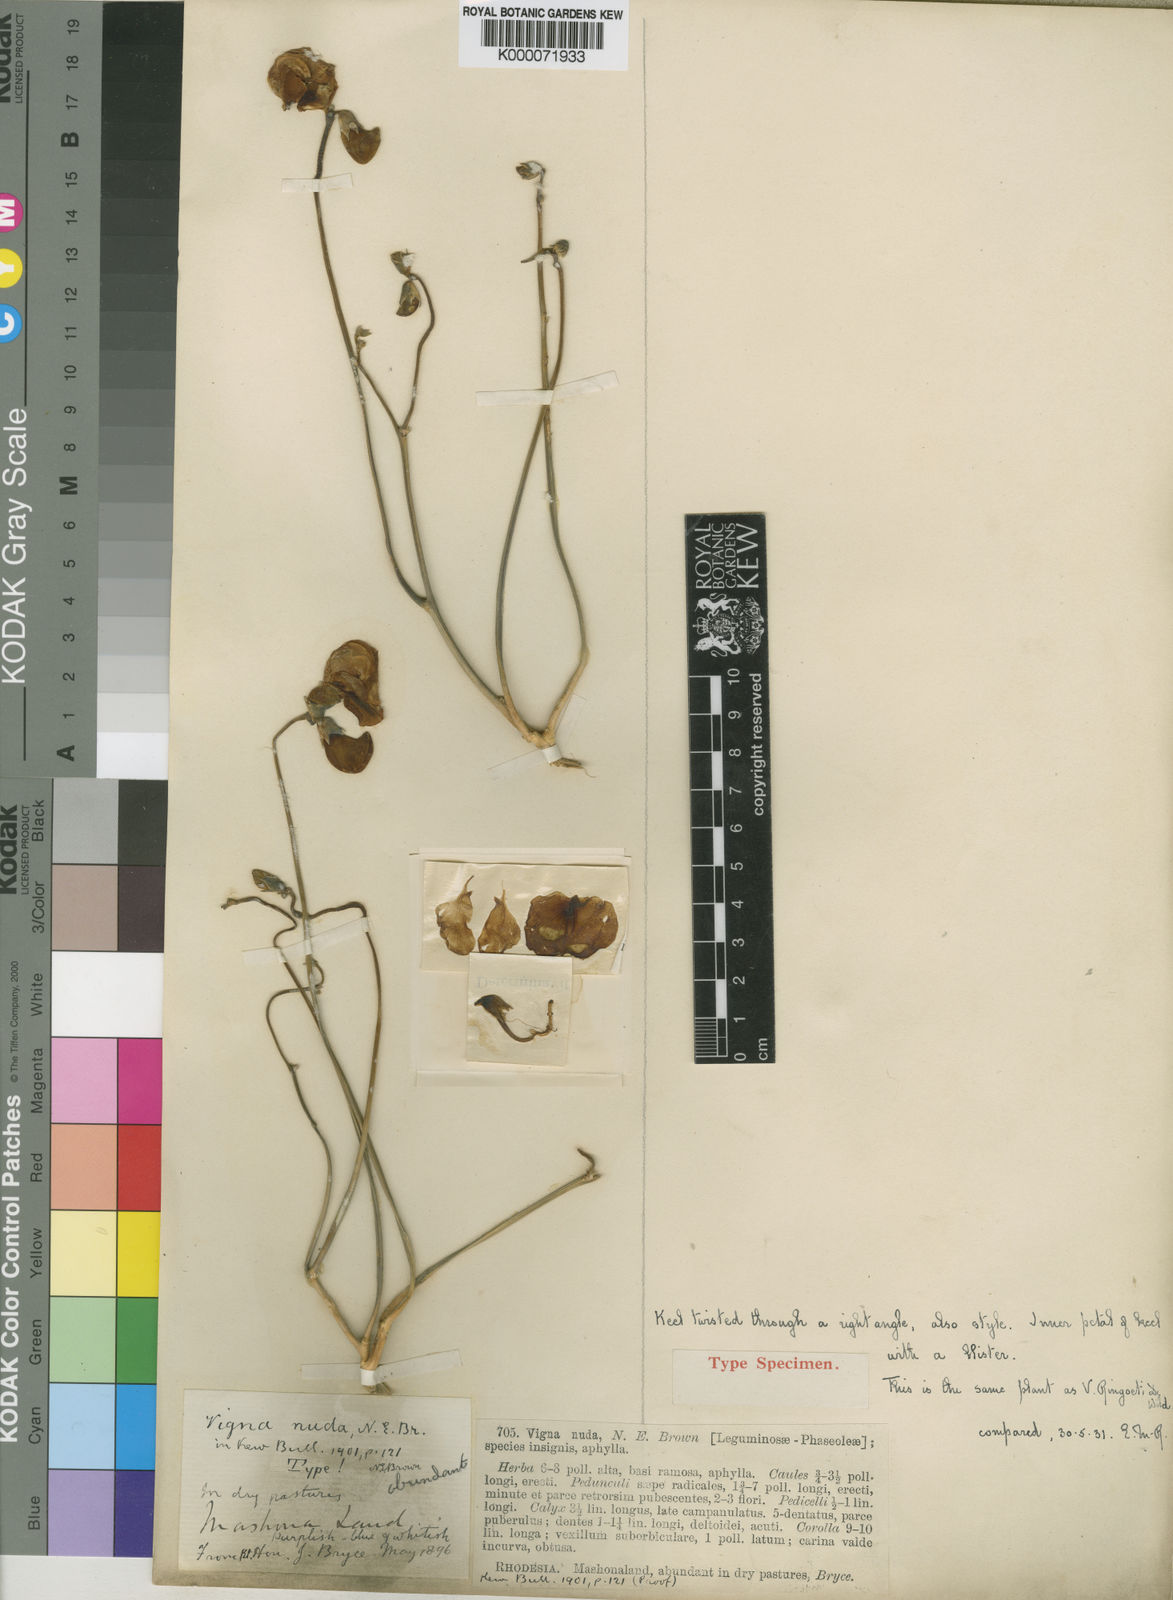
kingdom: Plantae
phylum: Tracheophyta
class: Magnoliopsida
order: Fabales
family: Fabaceae
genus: Vigna
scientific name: Vigna antunesii
